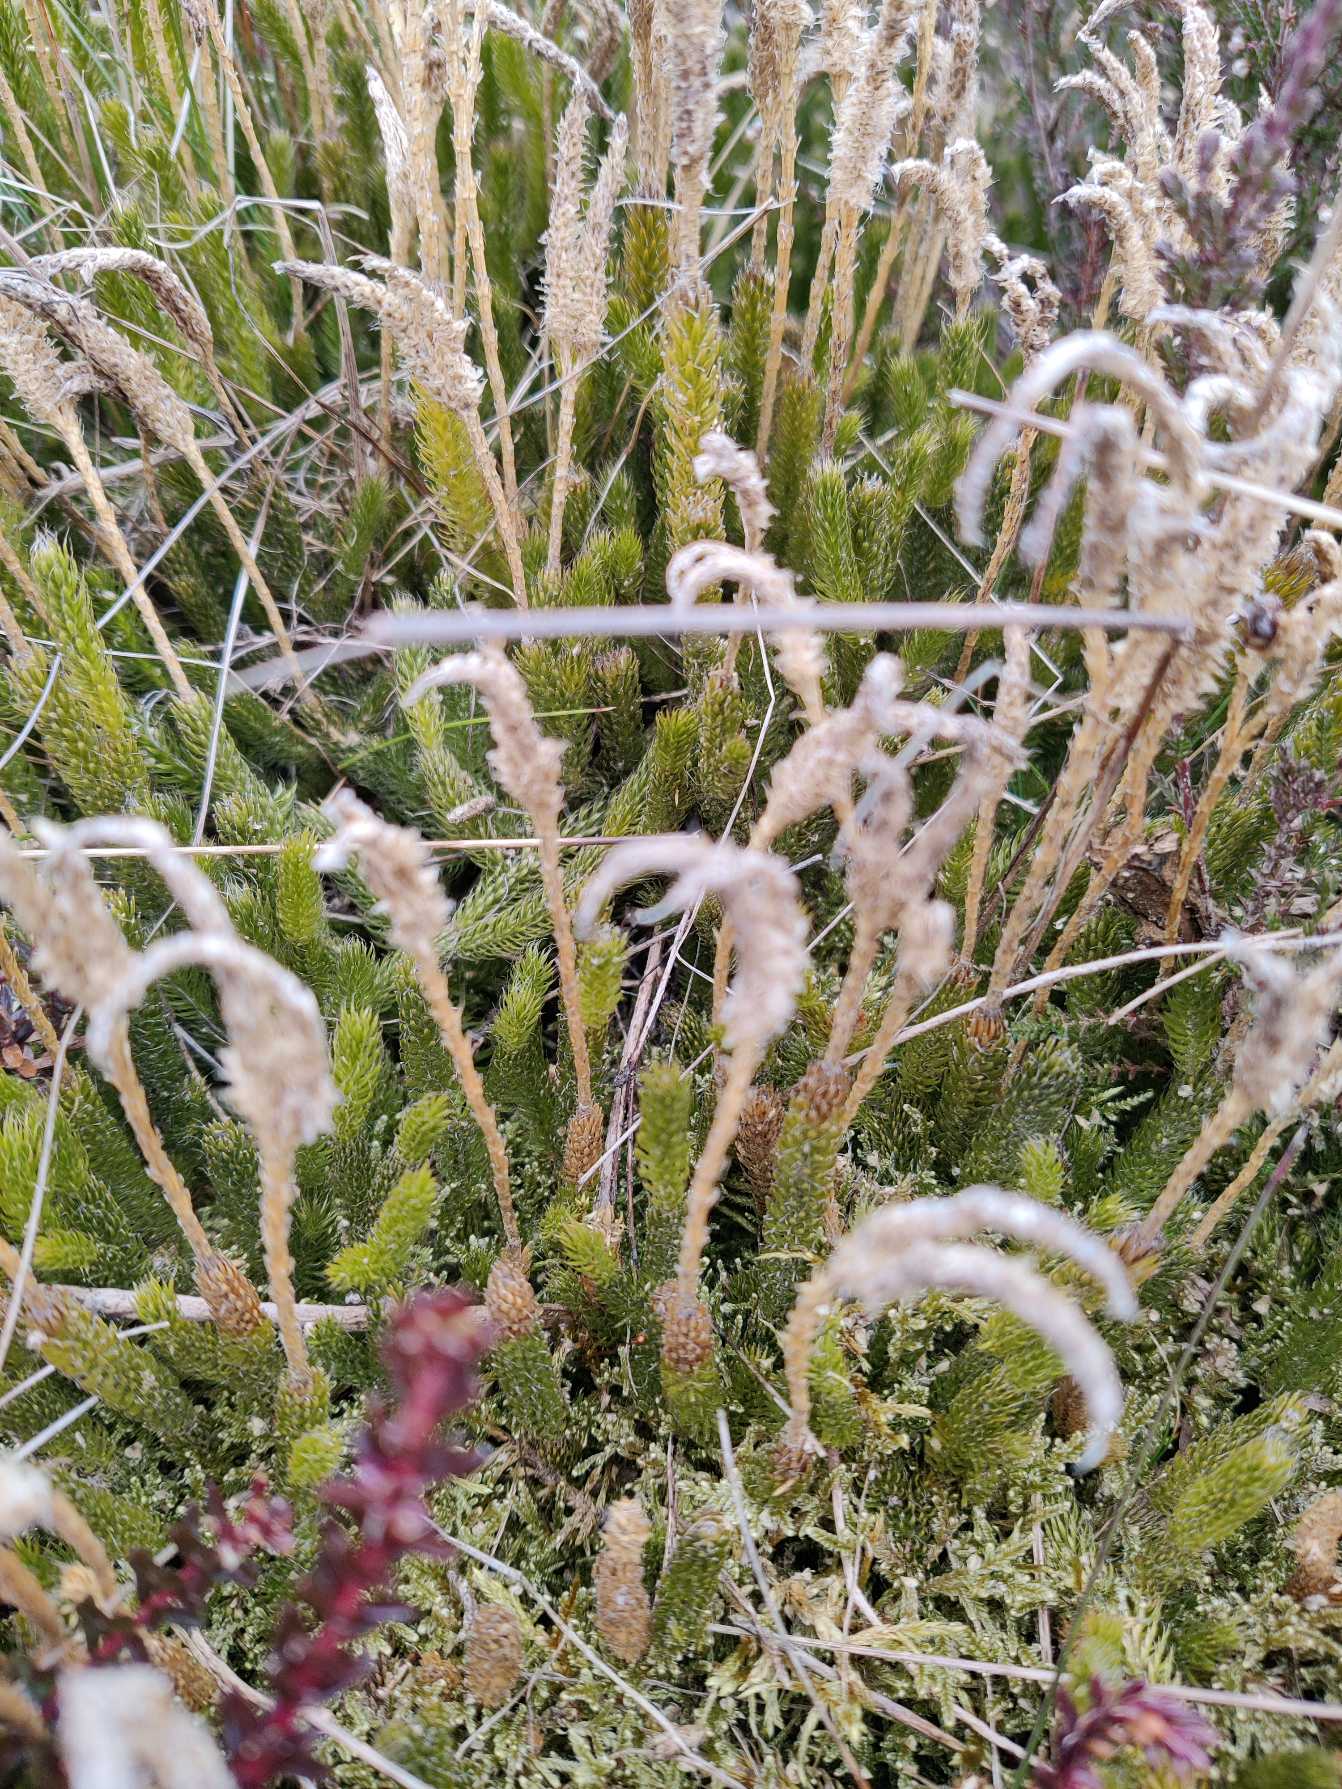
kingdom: Plantae
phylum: Tracheophyta
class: Lycopodiopsida
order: Lycopodiales
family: Lycopodiaceae
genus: Lycopodium
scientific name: Lycopodium clavatum
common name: Almindelig ulvefod
